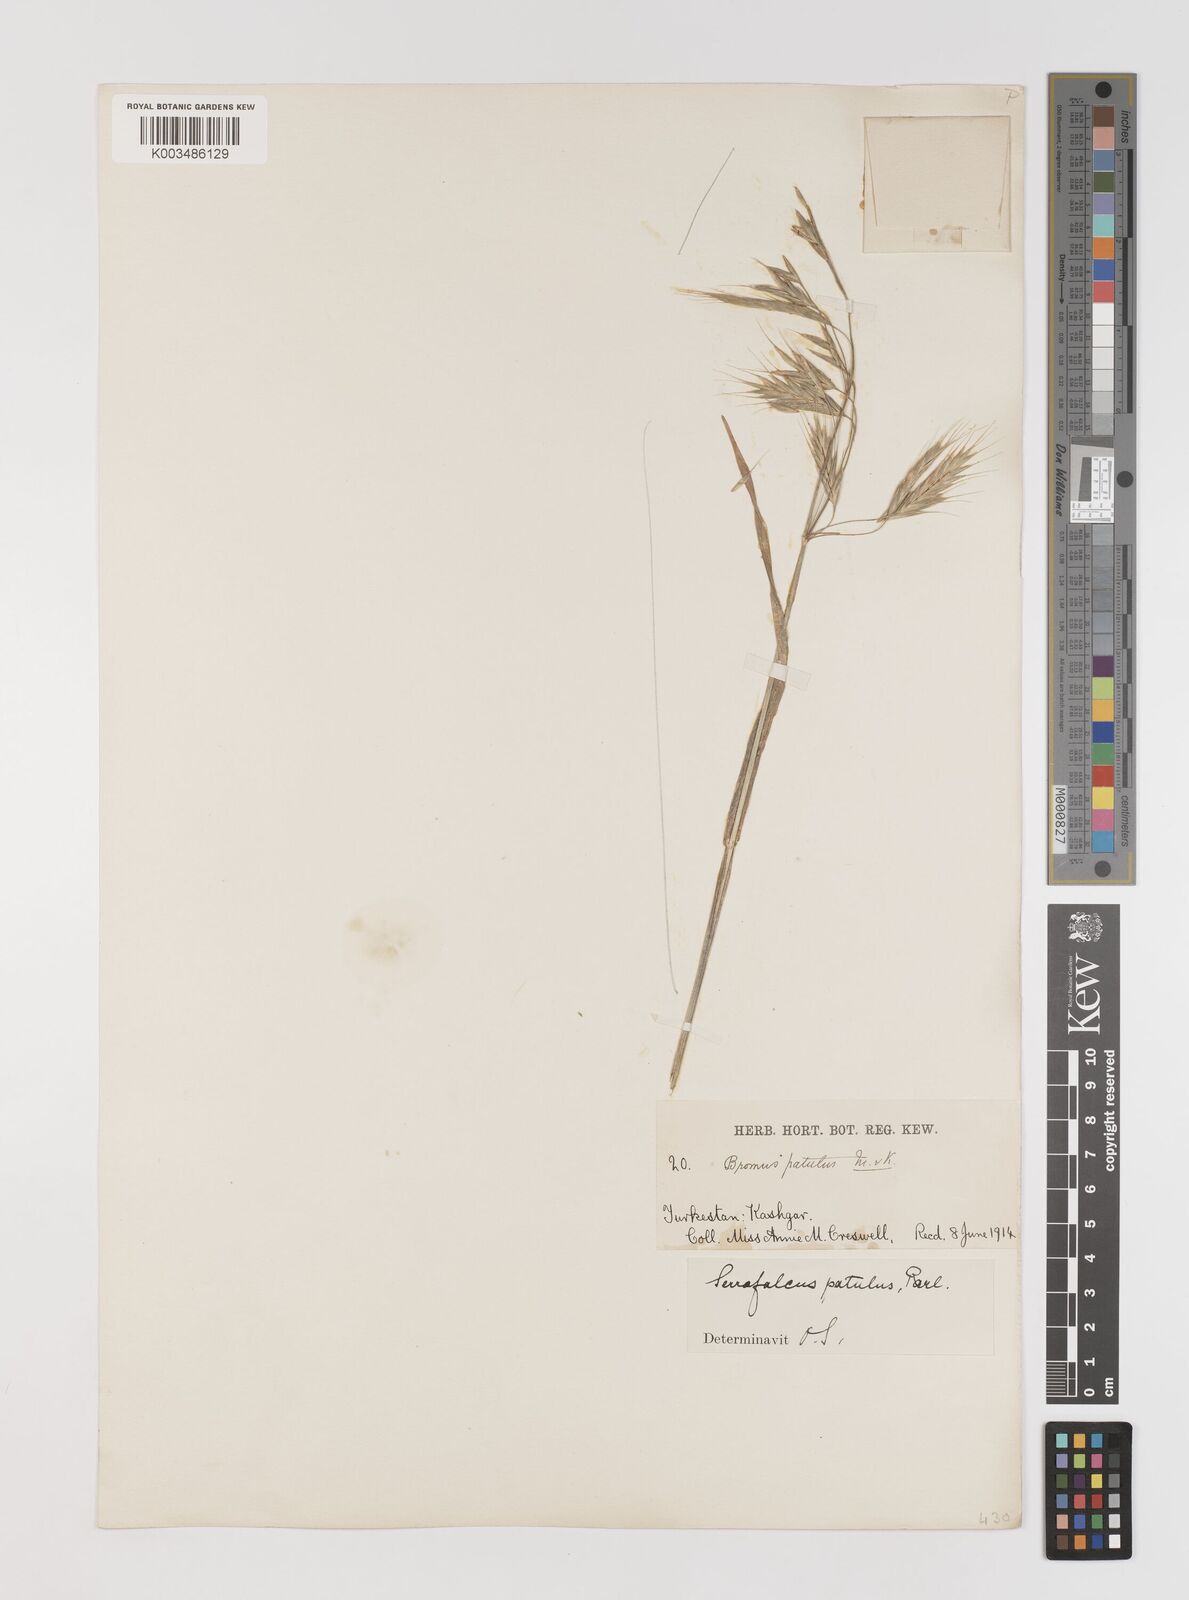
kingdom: Plantae
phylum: Tracheophyta
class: Liliopsida
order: Poales
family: Poaceae
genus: Bromus
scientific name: Bromus japonicus
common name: Japanese brome
